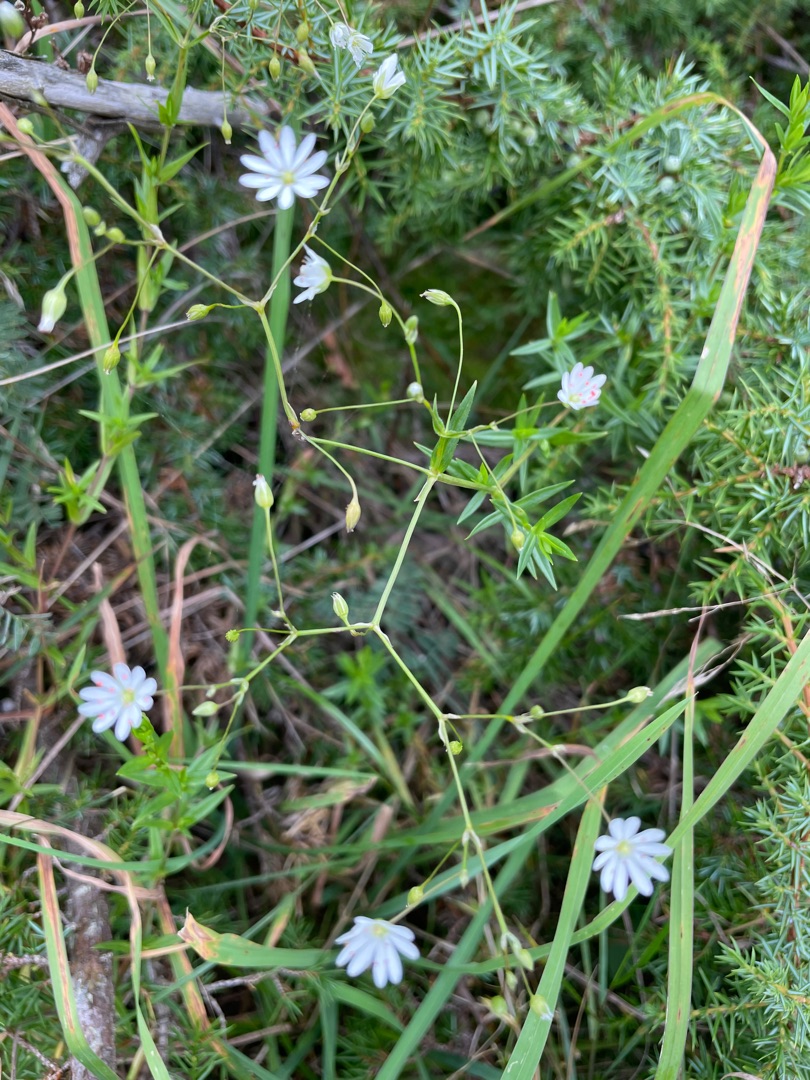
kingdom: Plantae
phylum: Tracheophyta
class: Magnoliopsida
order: Caryophyllales
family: Caryophyllaceae
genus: Stellaria
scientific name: Stellaria graminea
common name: Græsbladet fladstjerne
